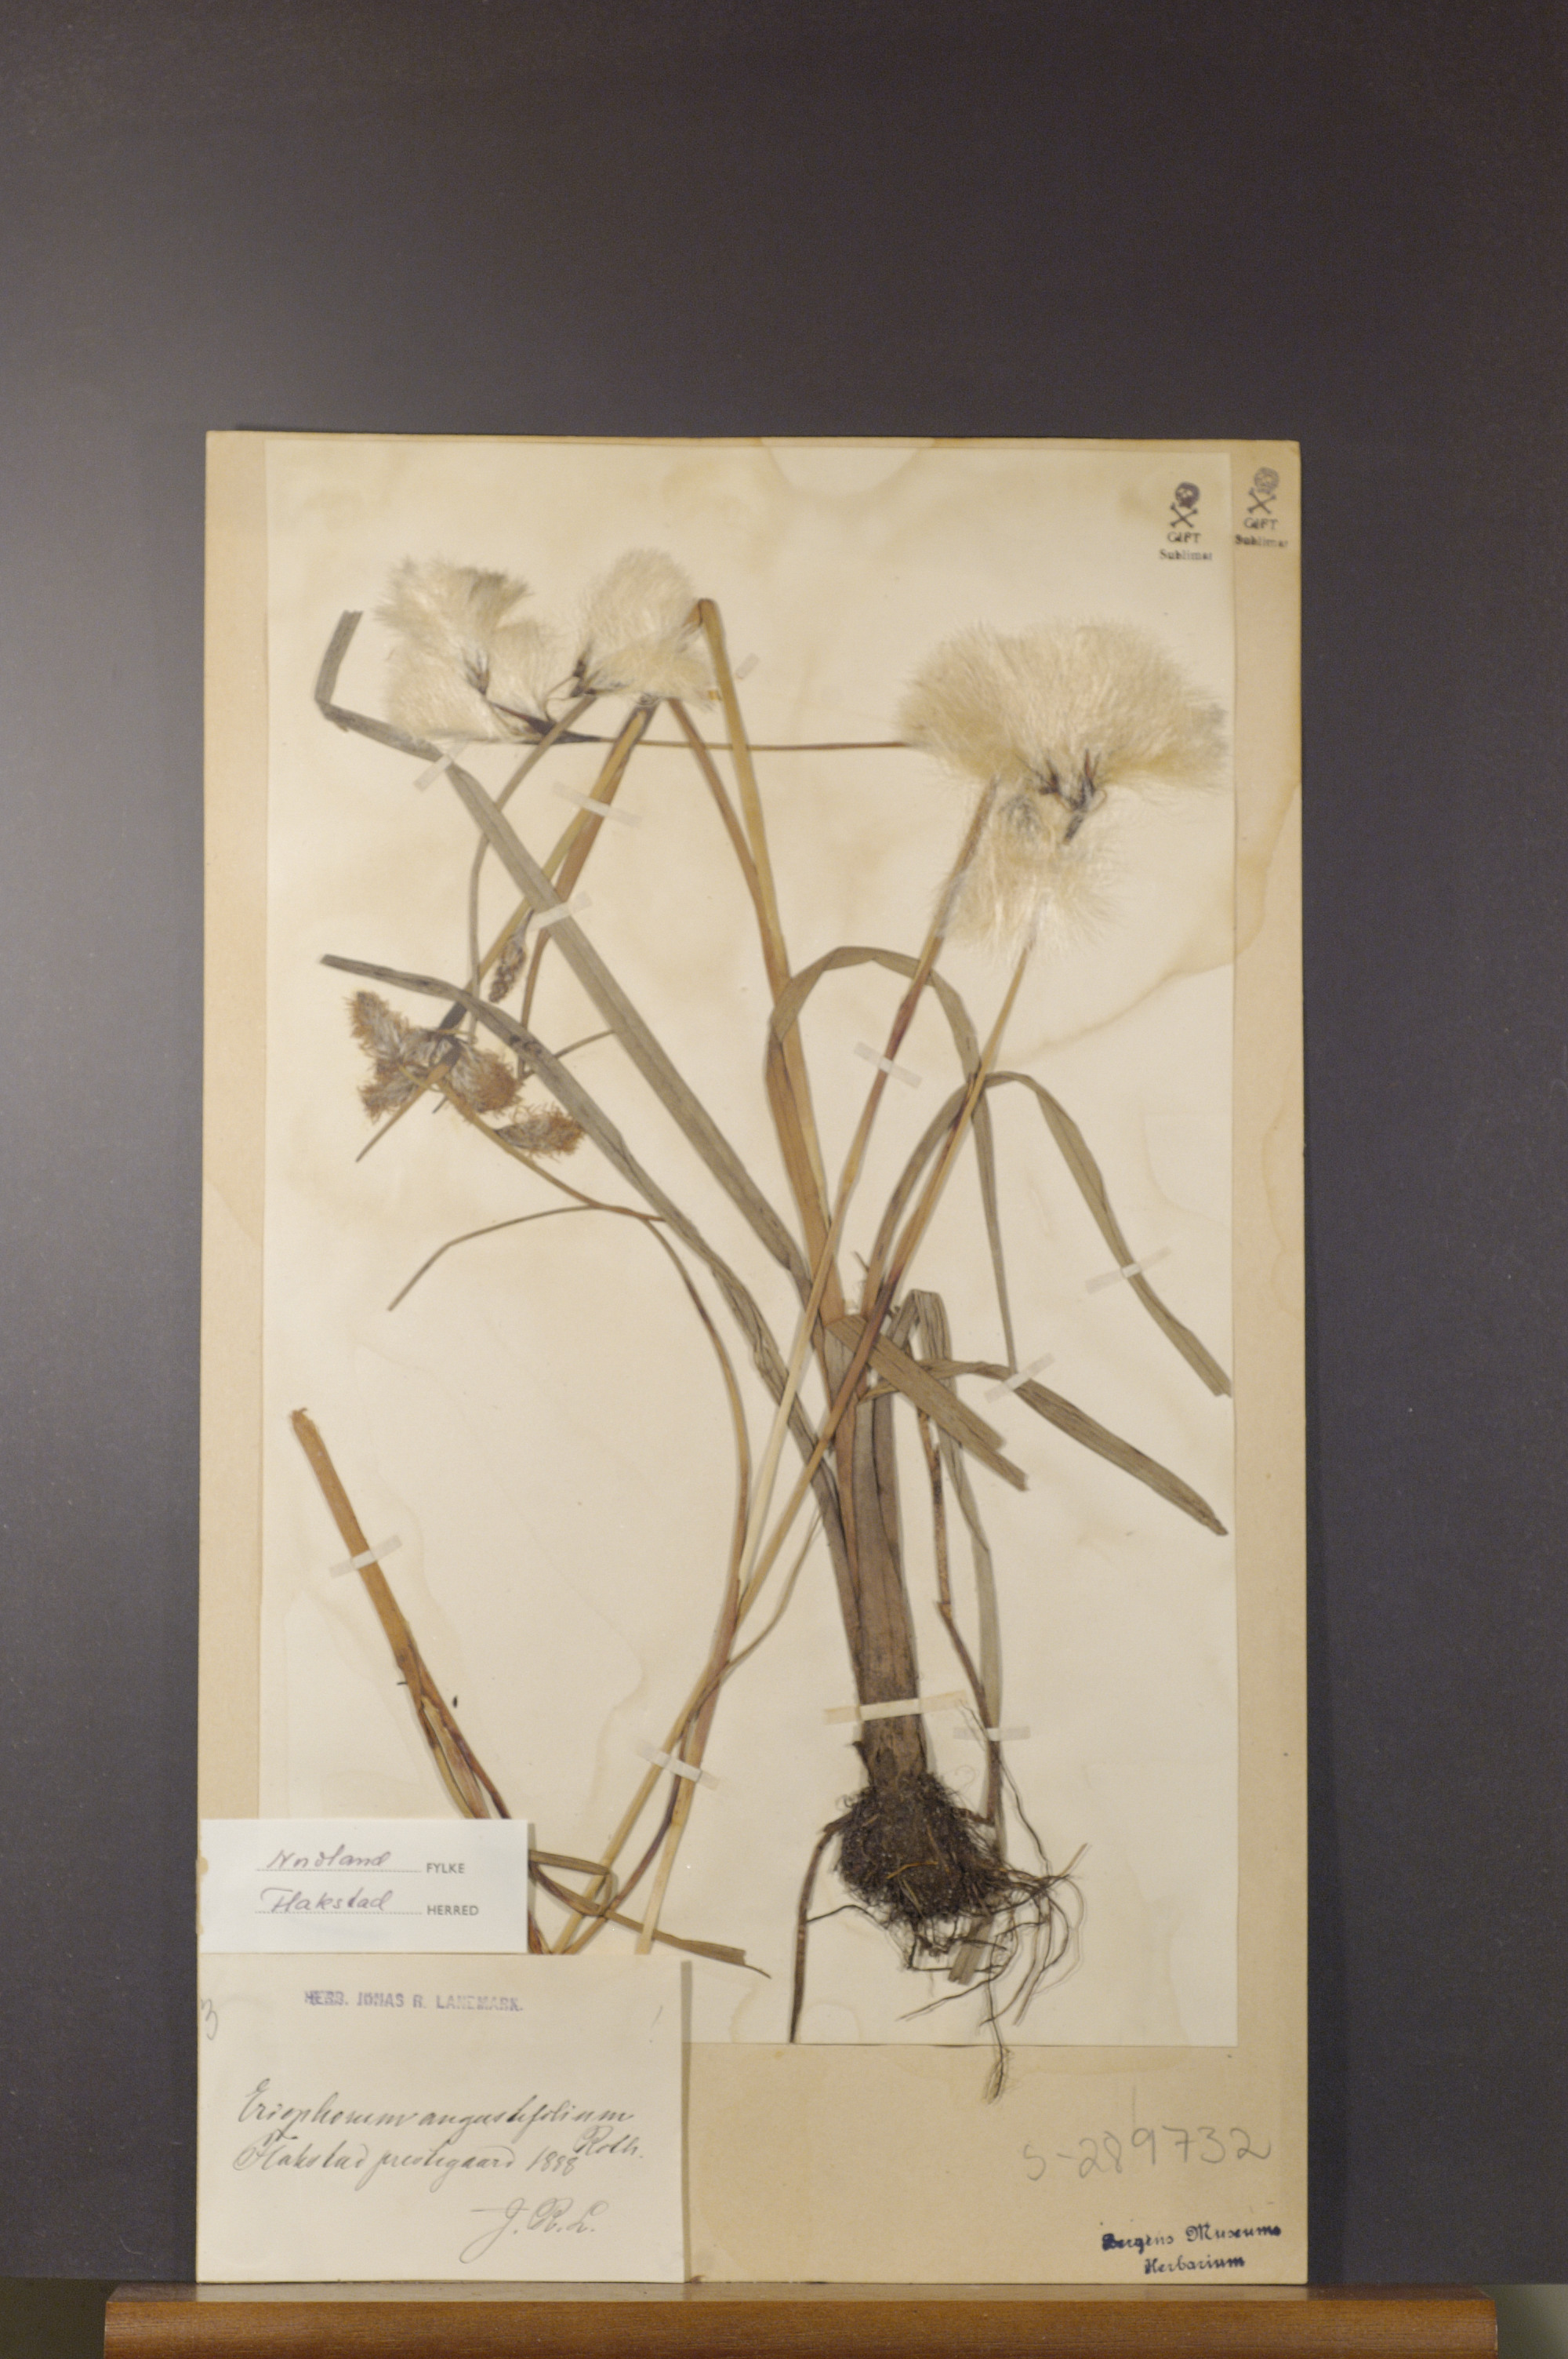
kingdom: Plantae
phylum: Tracheophyta
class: Liliopsida
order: Poales
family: Cyperaceae
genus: Eriophorum
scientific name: Eriophorum angustifolium
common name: Common cottongrass
